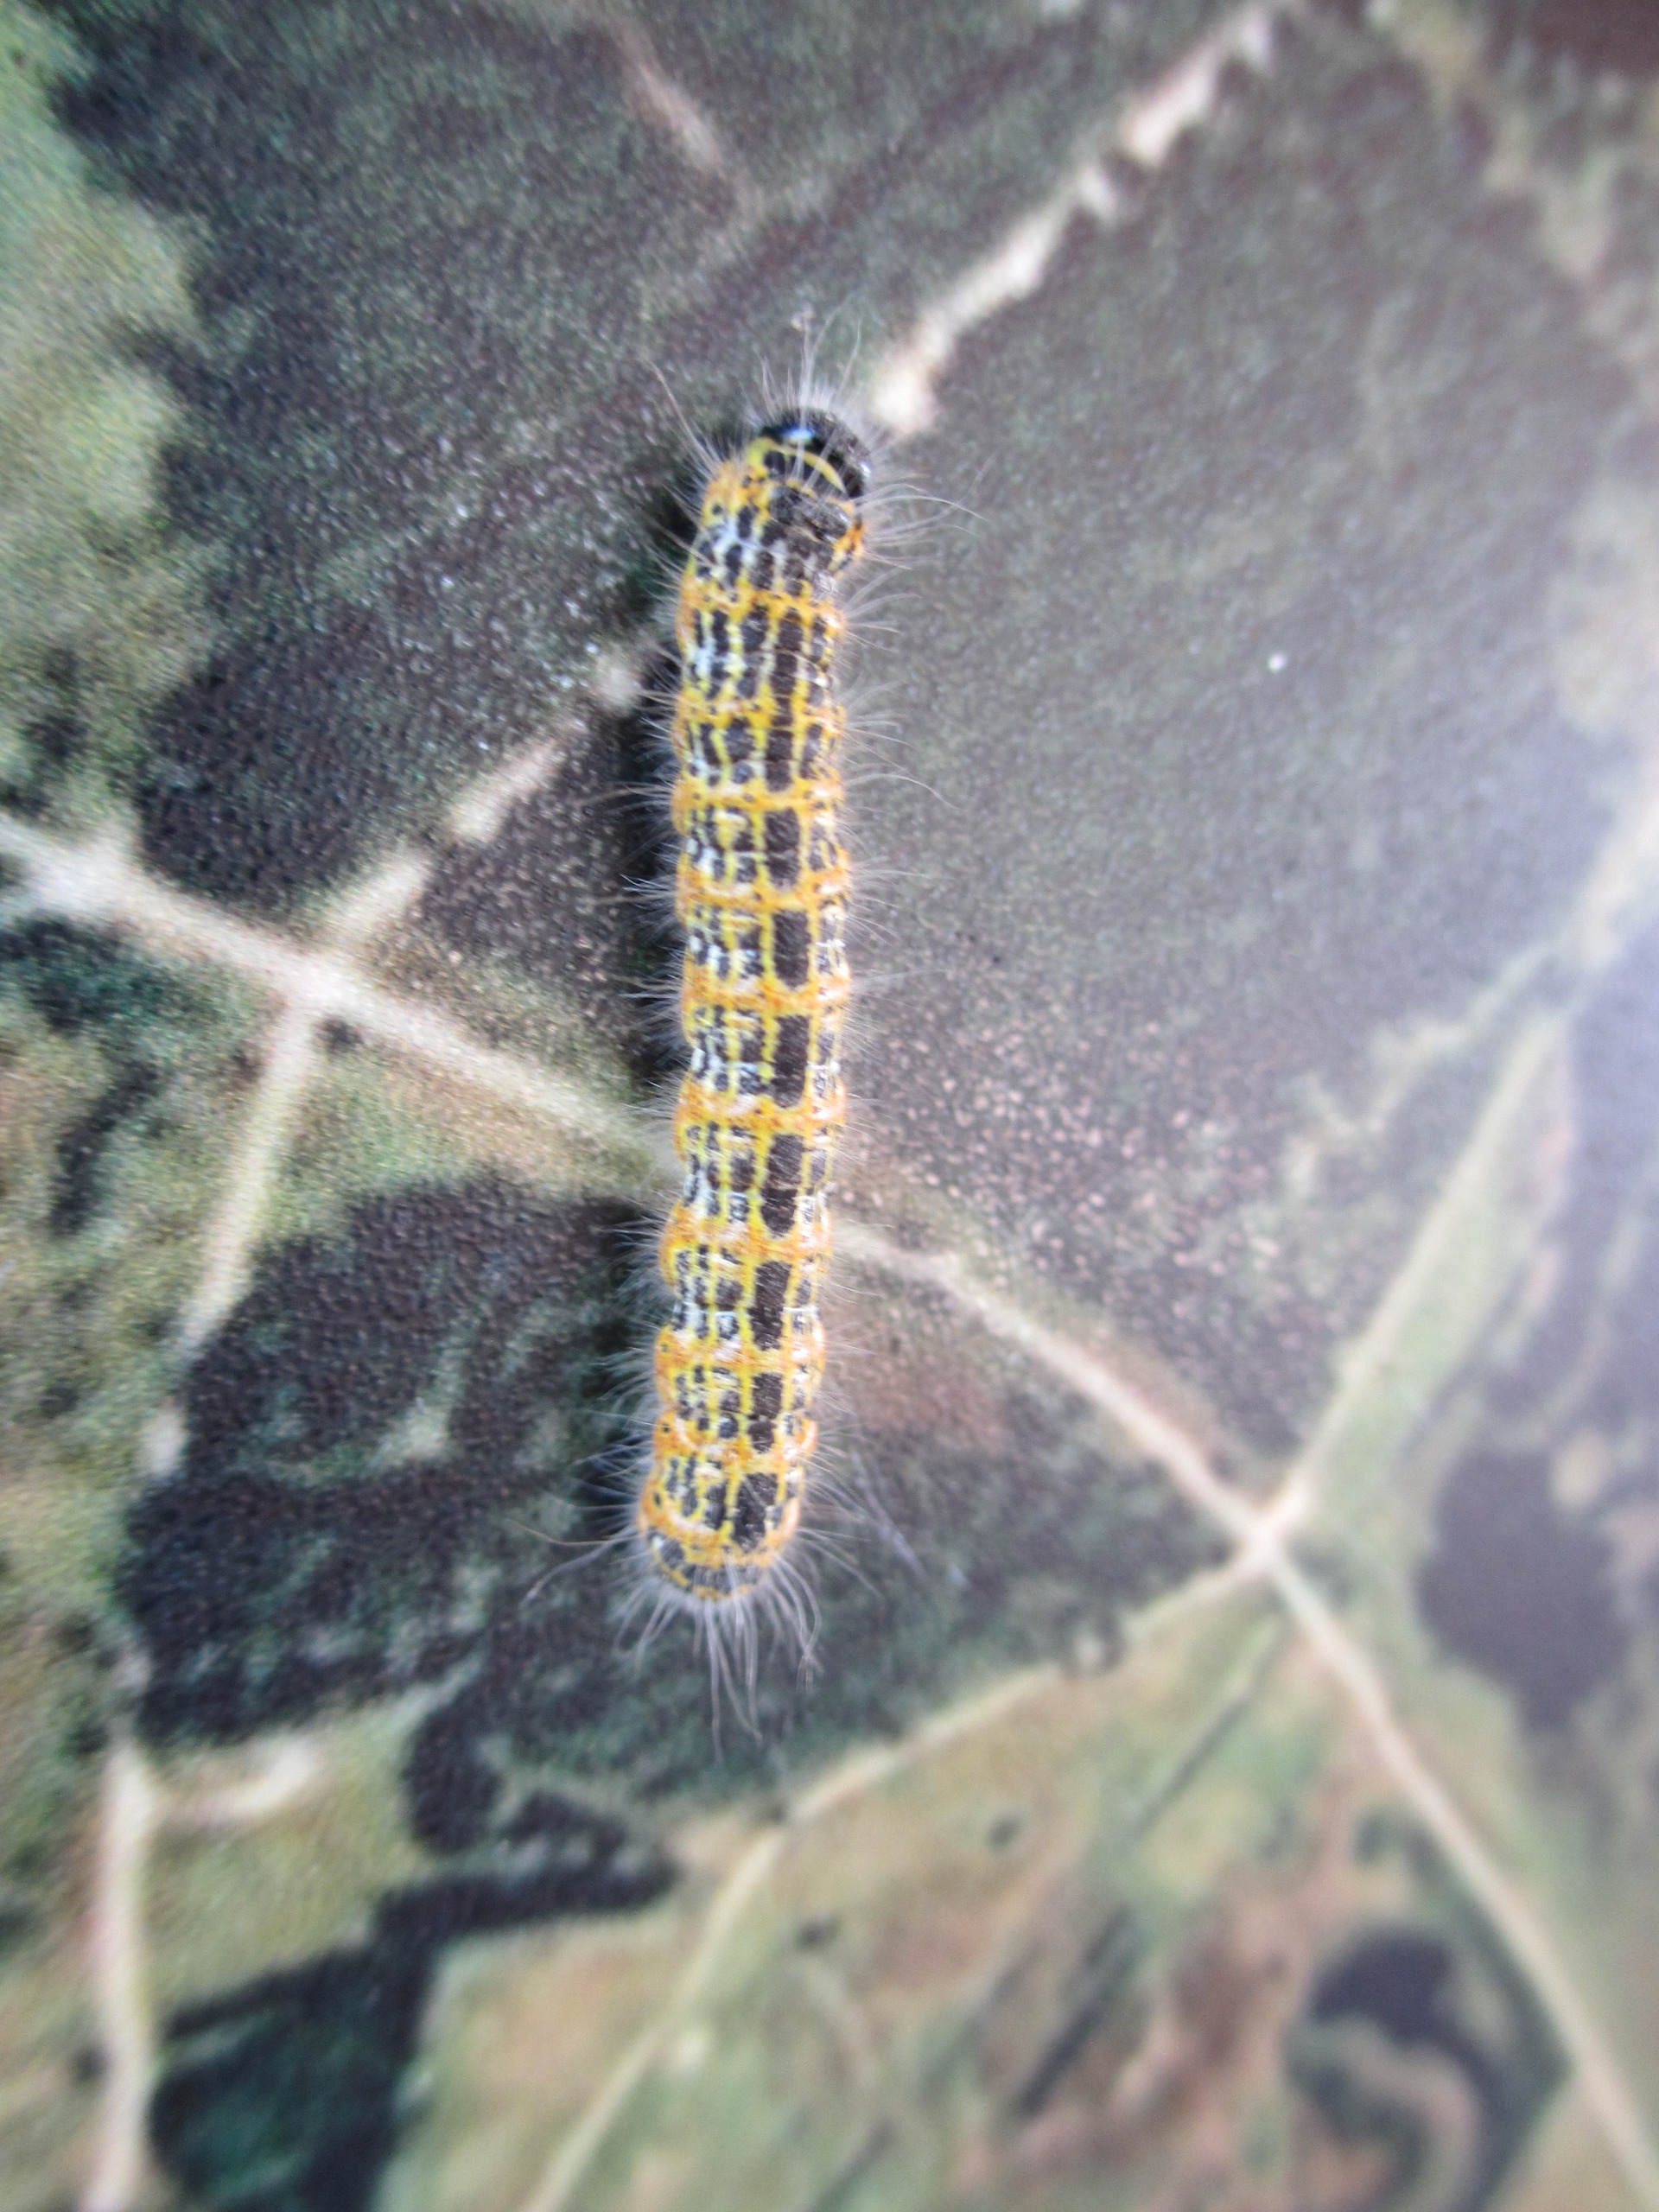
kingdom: Animalia
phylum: Arthropoda
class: Insecta
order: Lepidoptera
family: Notodontidae
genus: Phalera
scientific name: Phalera bucephala
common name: Måneplet
